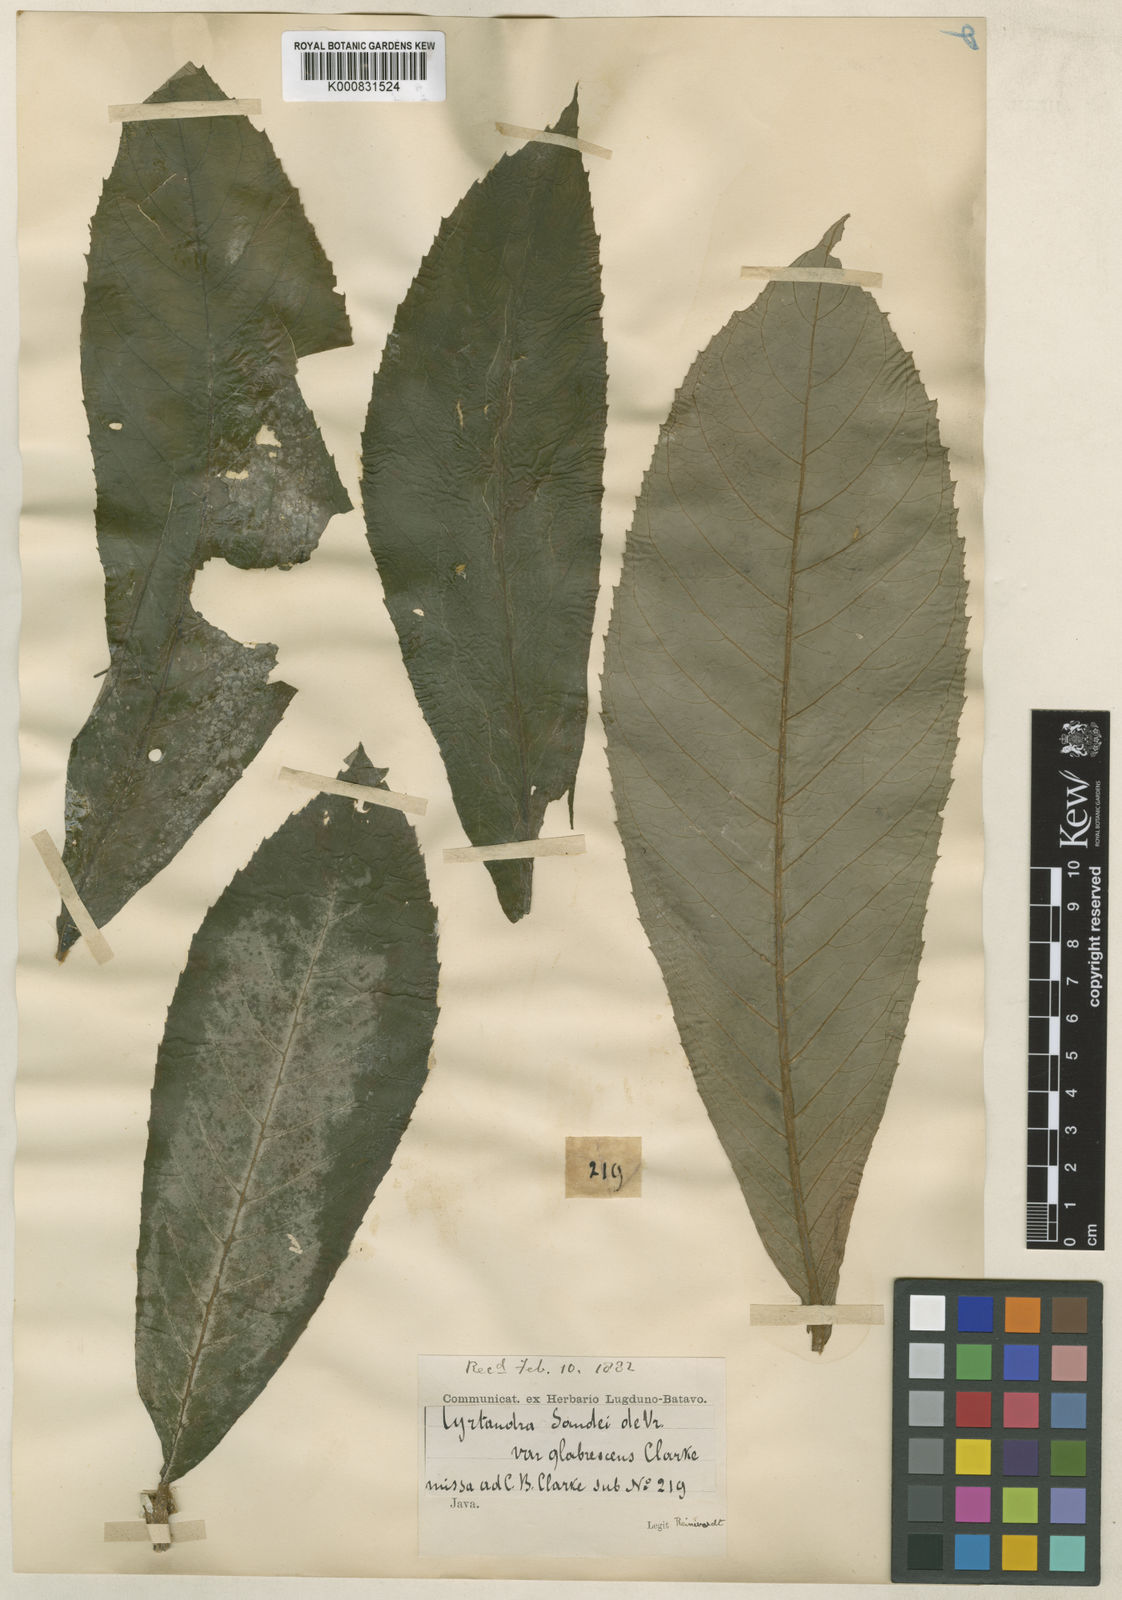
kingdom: Plantae
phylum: Tracheophyta
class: Magnoliopsida
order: Lamiales
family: Gesneriaceae
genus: Cyrtandra
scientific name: Cyrtandra sandei
